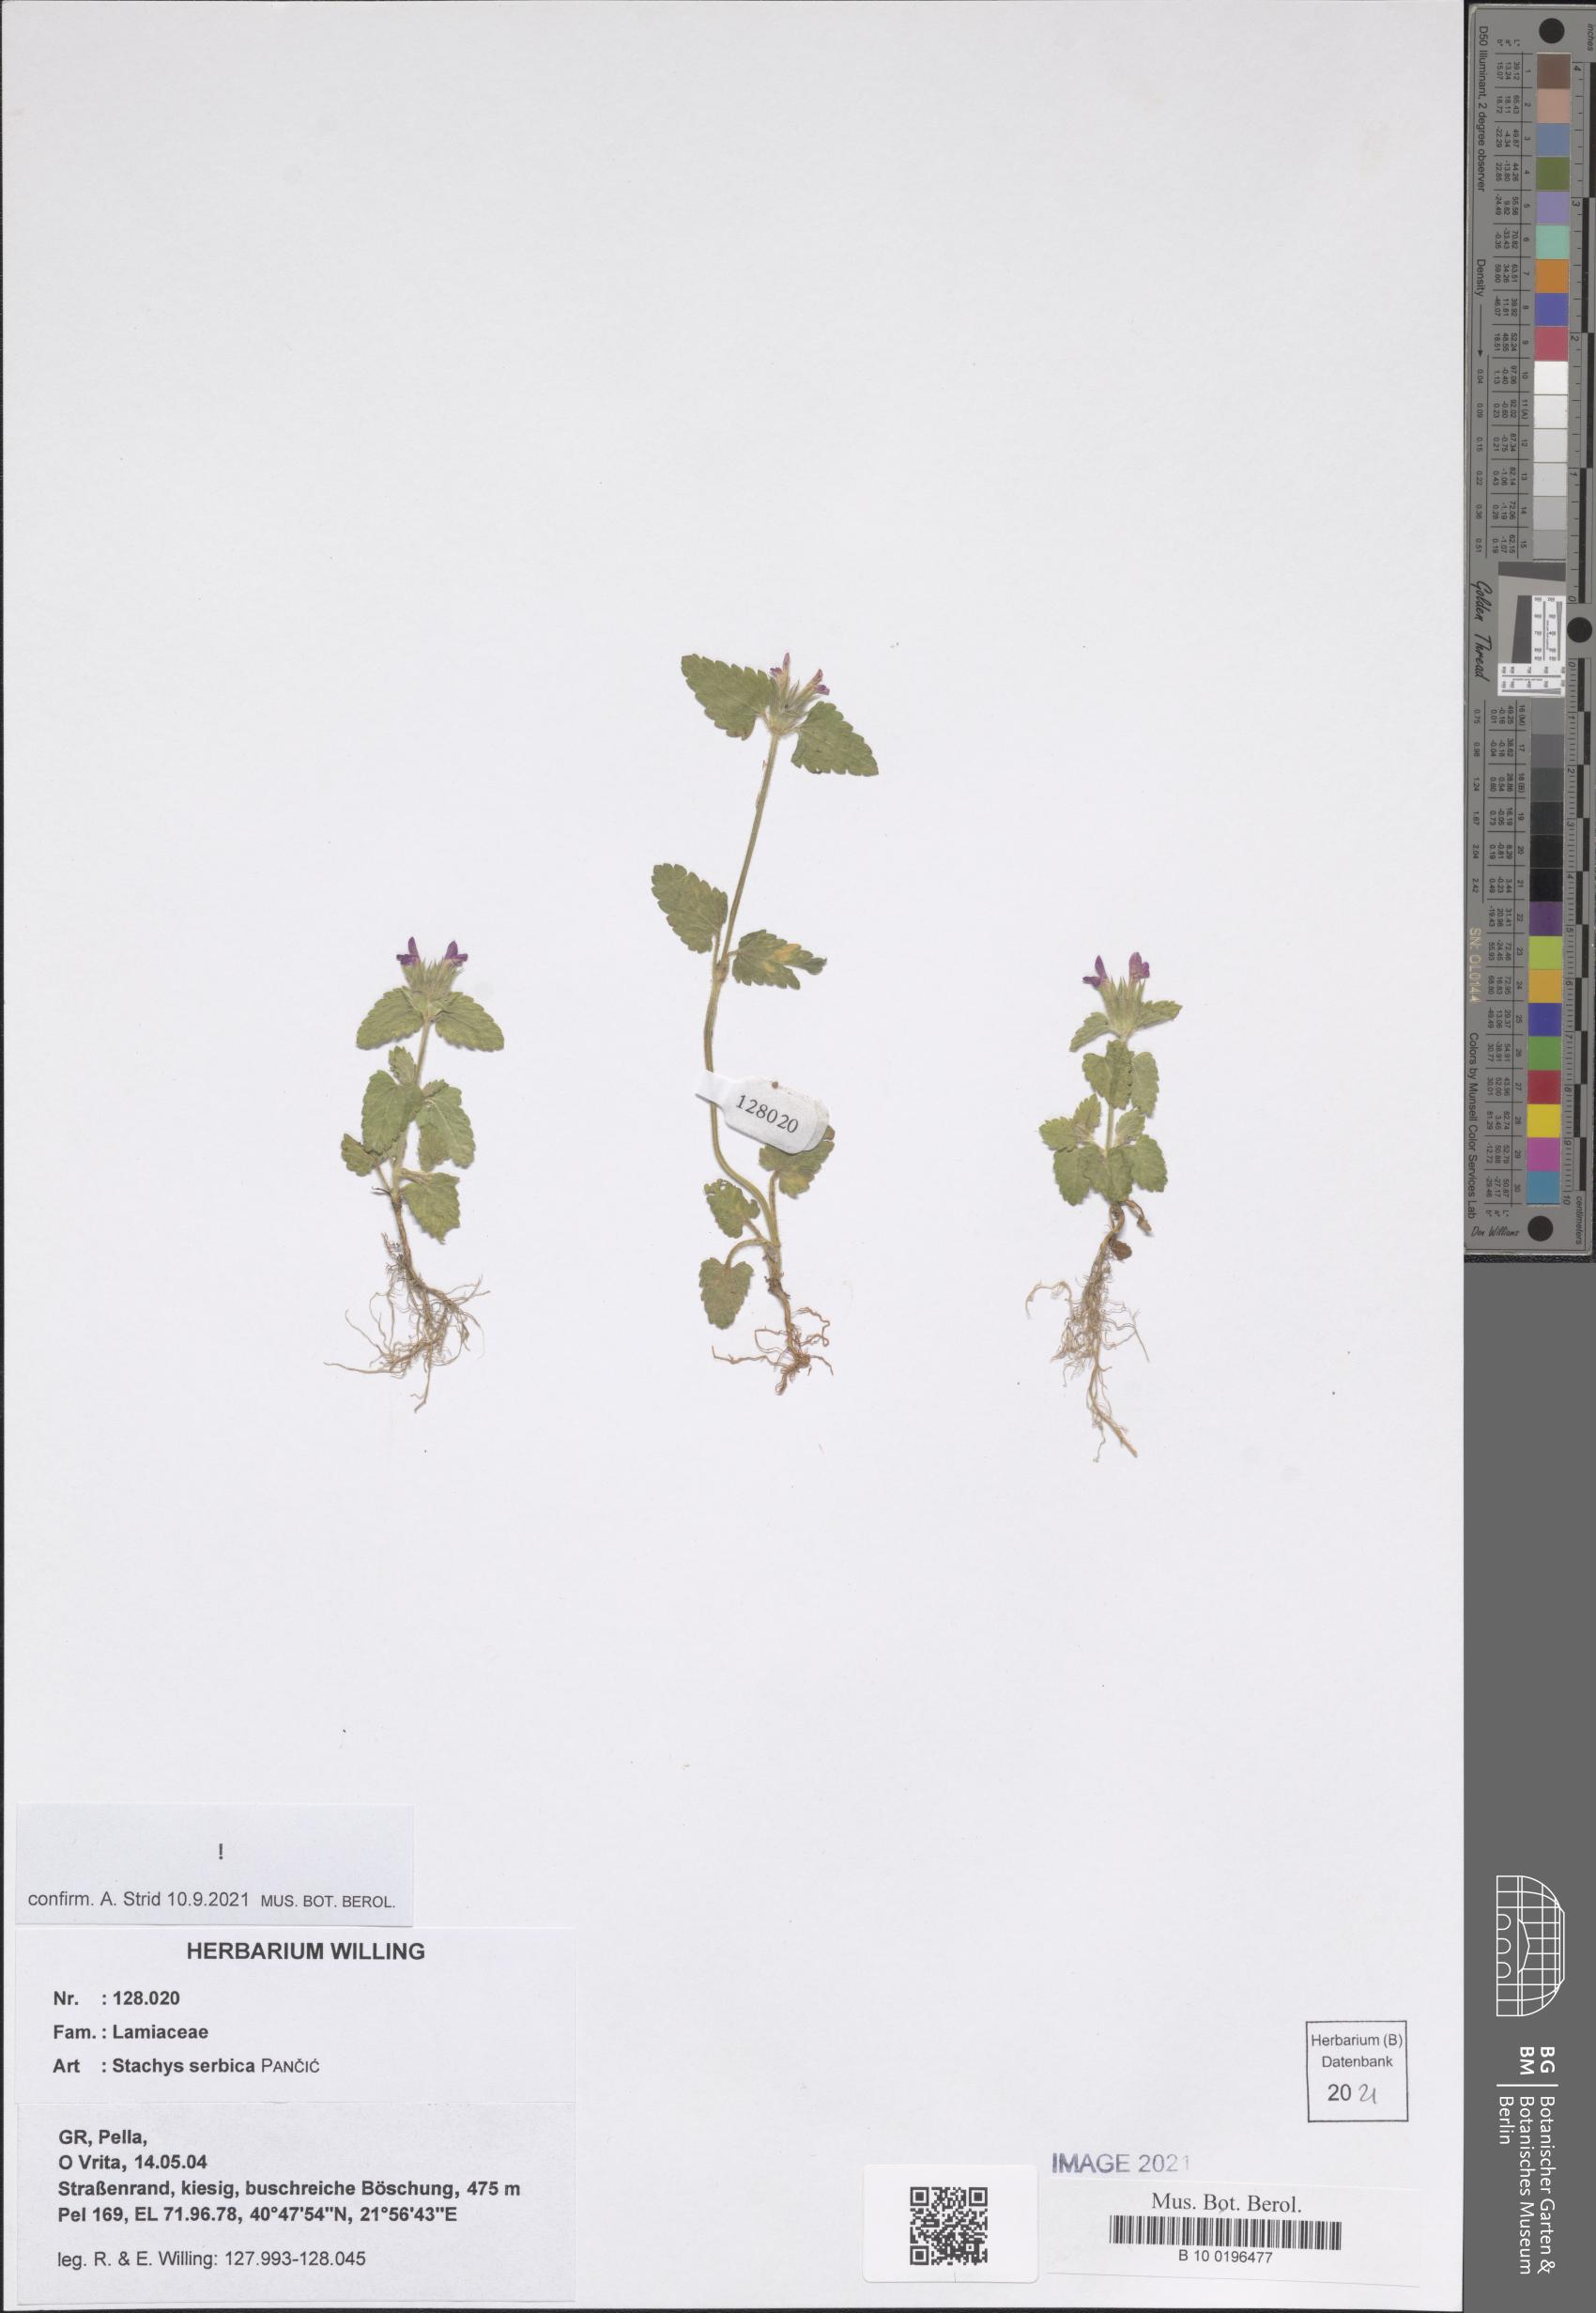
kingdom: Plantae
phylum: Tracheophyta
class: Magnoliopsida
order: Lamiales
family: Lamiaceae
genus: Stachys
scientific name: Stachys serbica
